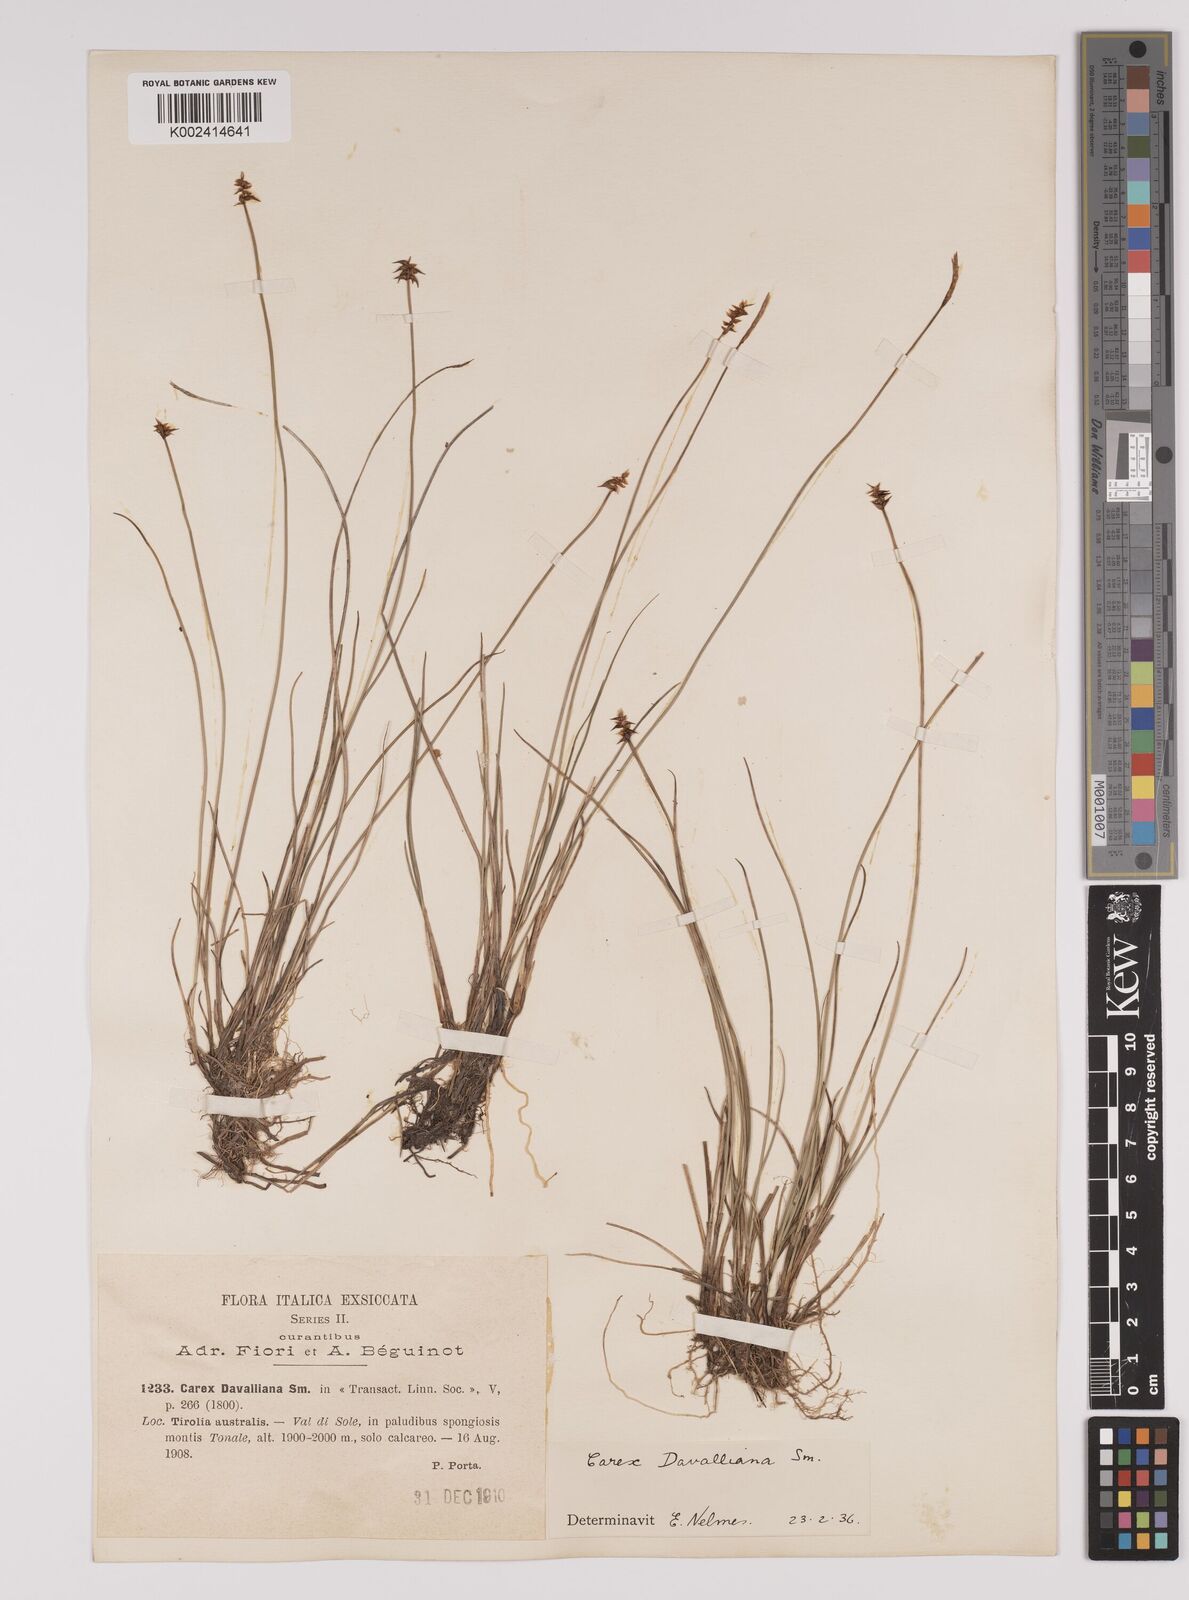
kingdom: Plantae
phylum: Tracheophyta
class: Liliopsida
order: Poales
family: Cyperaceae
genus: Carex
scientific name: Carex davalliana
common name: Davall's sedge
